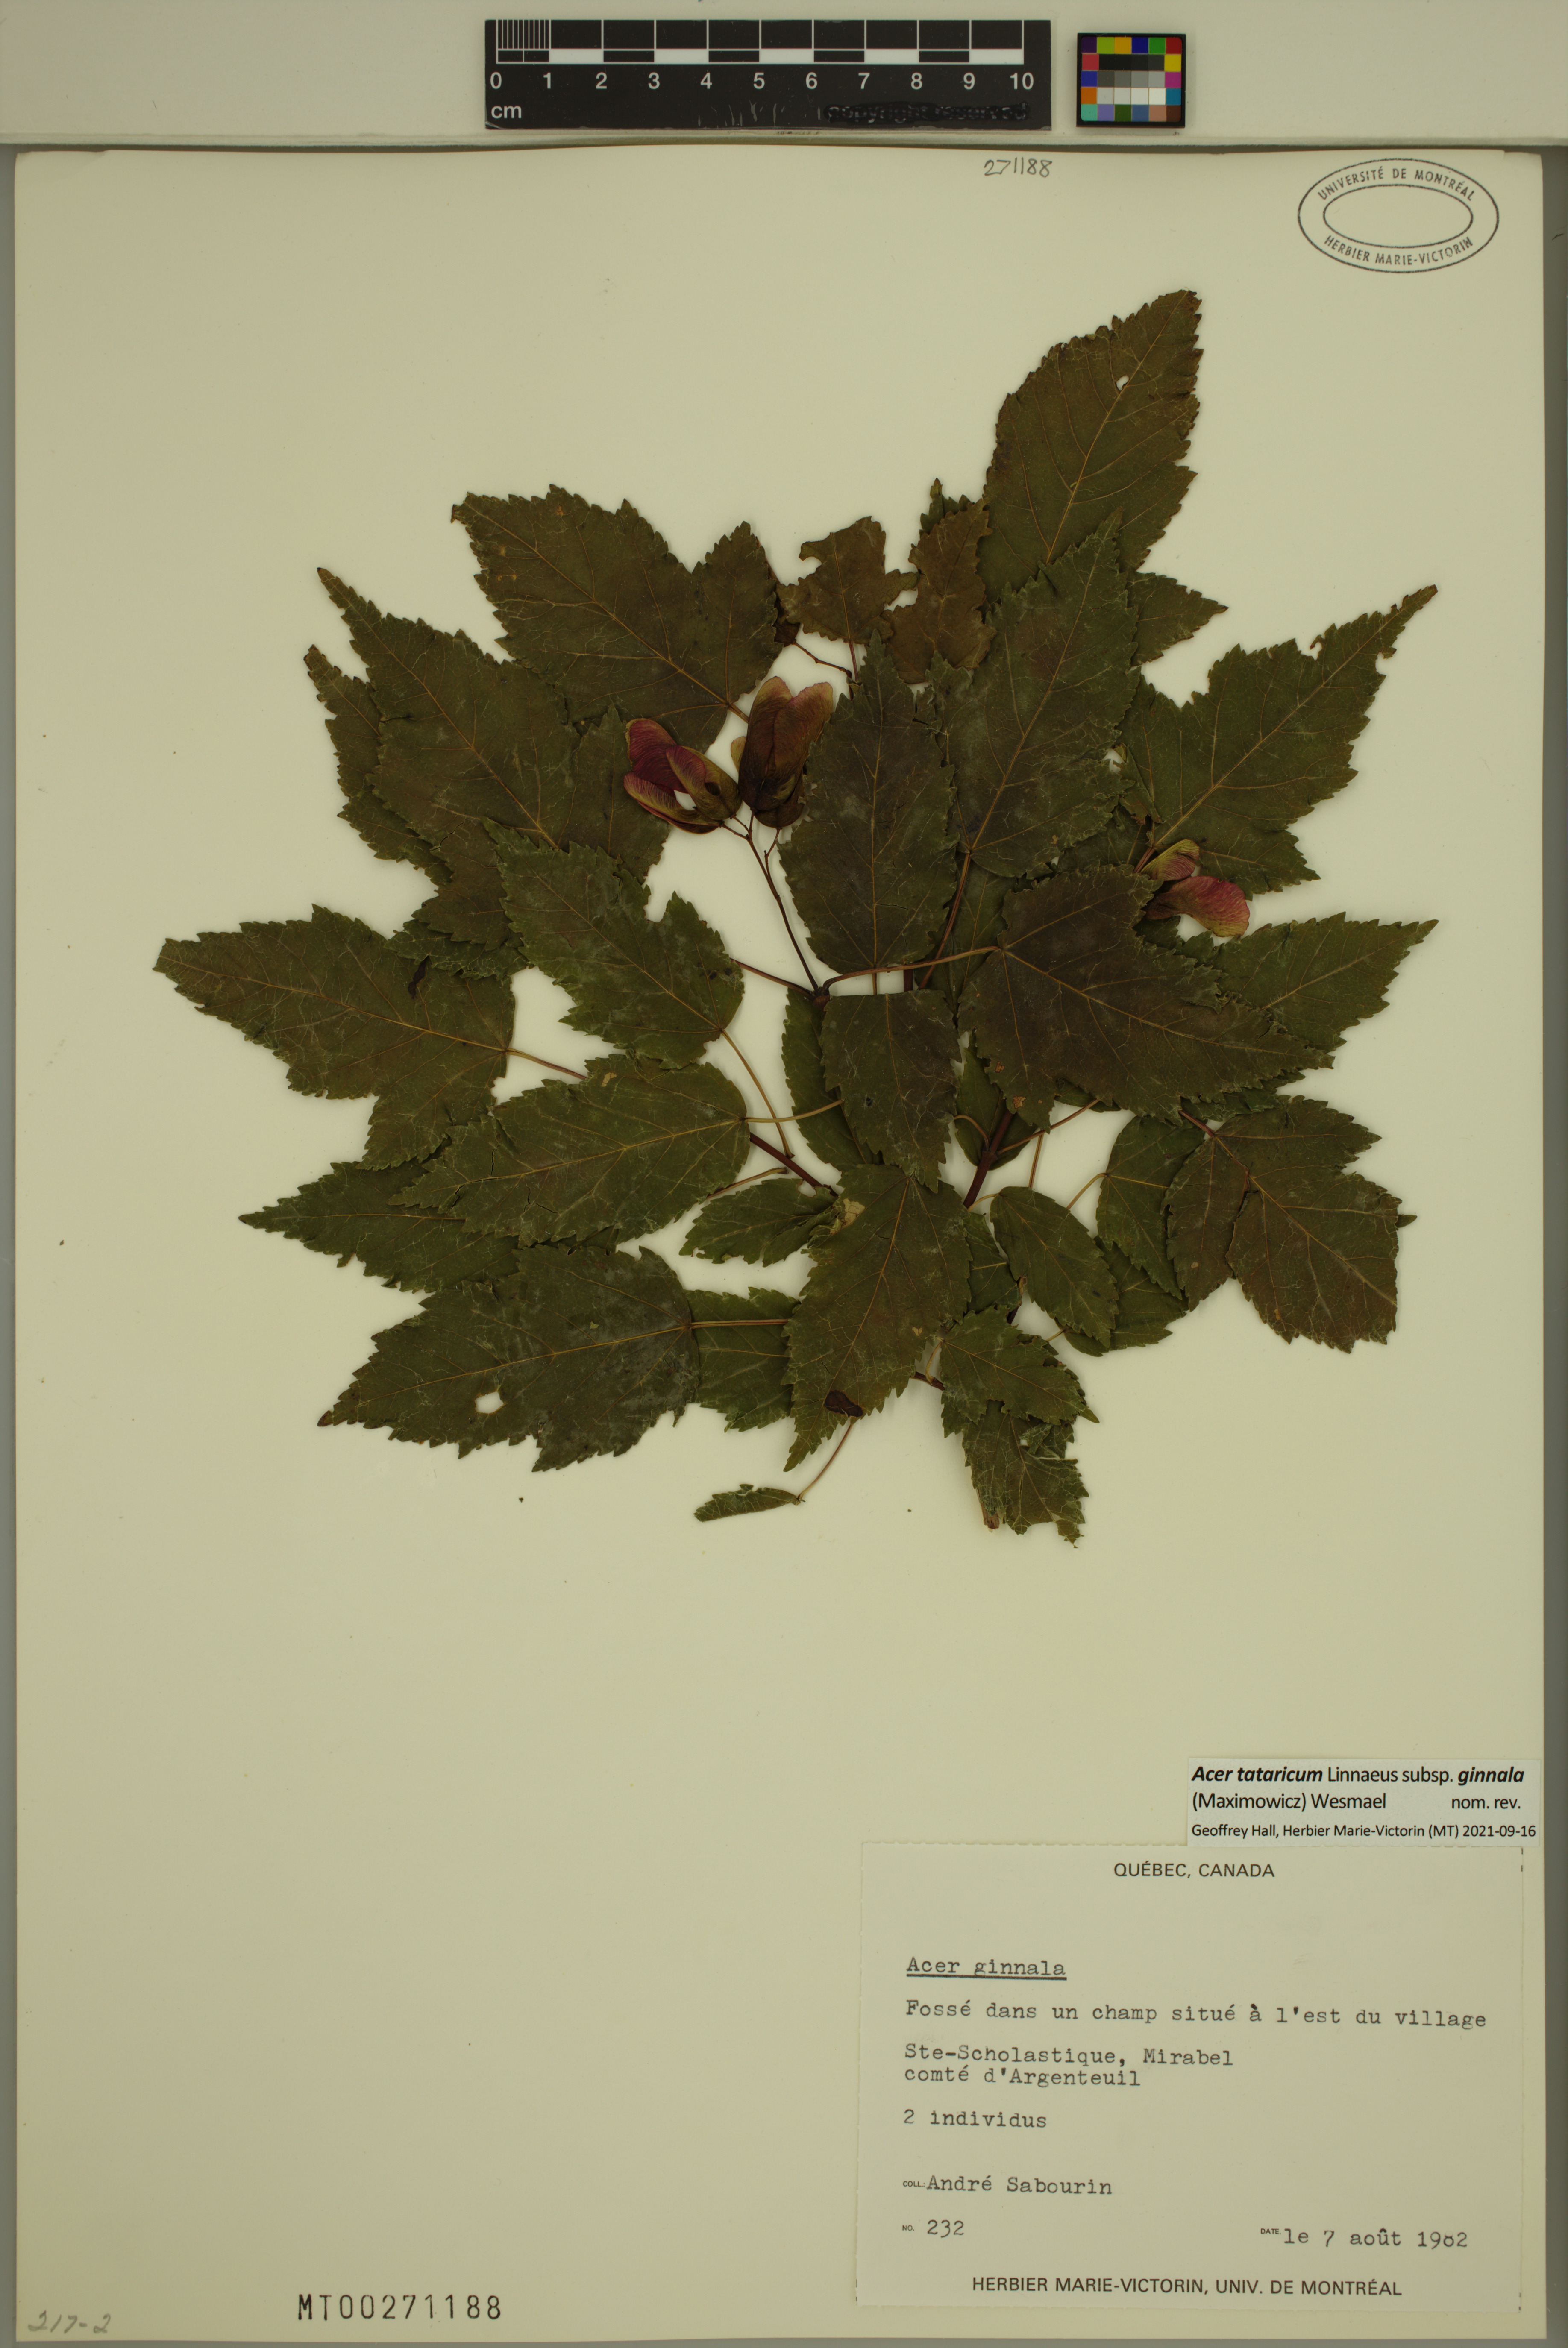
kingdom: Plantae
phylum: Tracheophyta
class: Magnoliopsida
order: Sapindales
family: Sapindaceae
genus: Acer
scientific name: Acer tataricum
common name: Tartar maple
